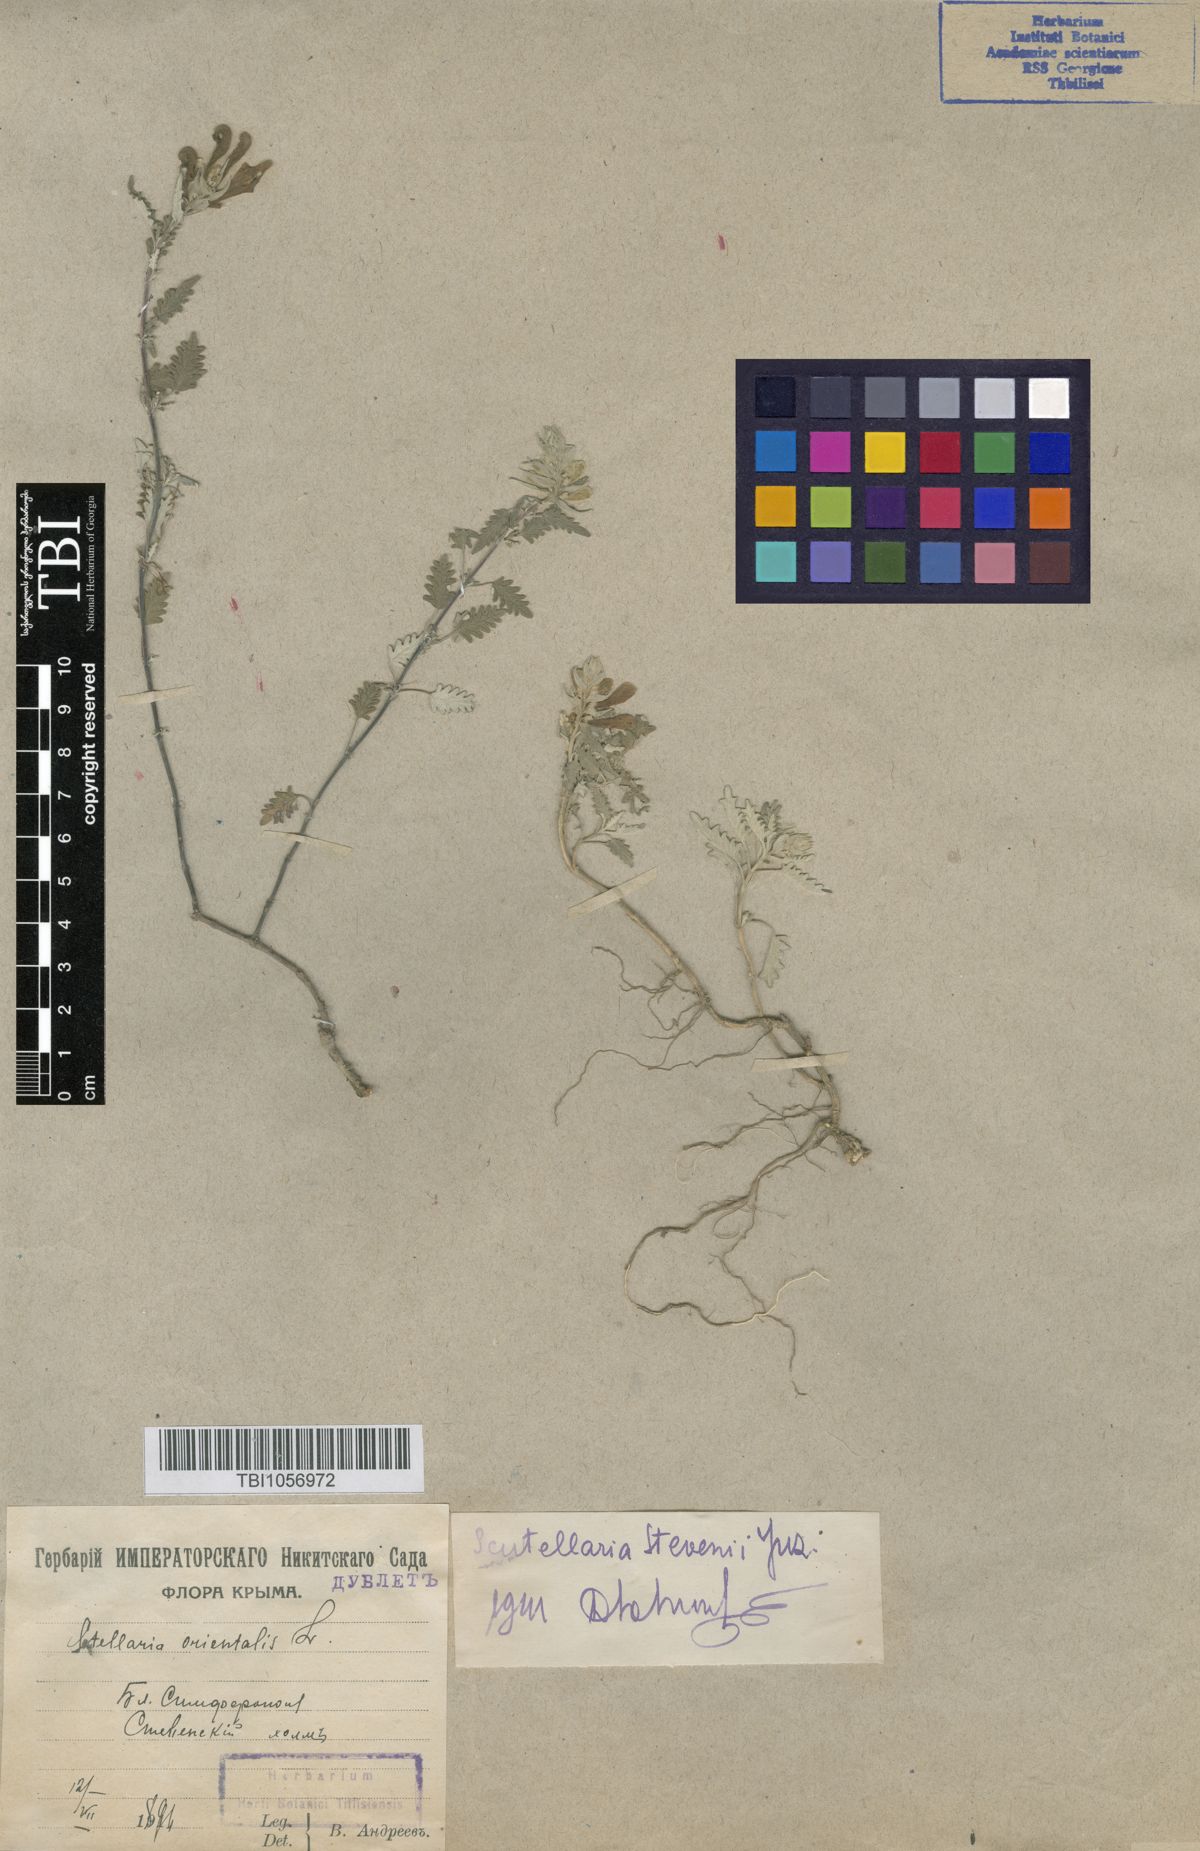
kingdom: Plantae
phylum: Tracheophyta
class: Magnoliopsida
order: Lamiales
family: Lamiaceae
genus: Scutellaria
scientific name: Scutellaria orientalis
